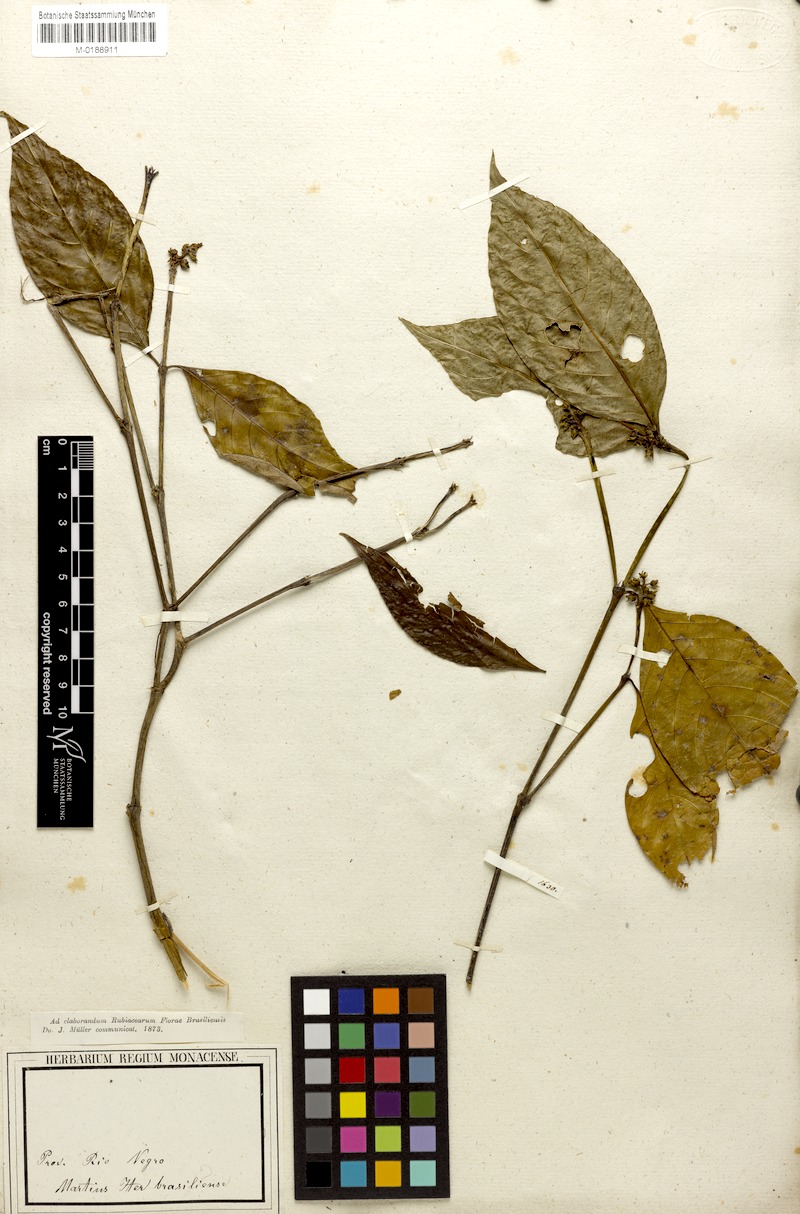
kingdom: Plantae
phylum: Tracheophyta
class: Magnoliopsida
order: Gentianales
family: Rubiaceae
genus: Palicourea
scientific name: Palicourea gracilenta
